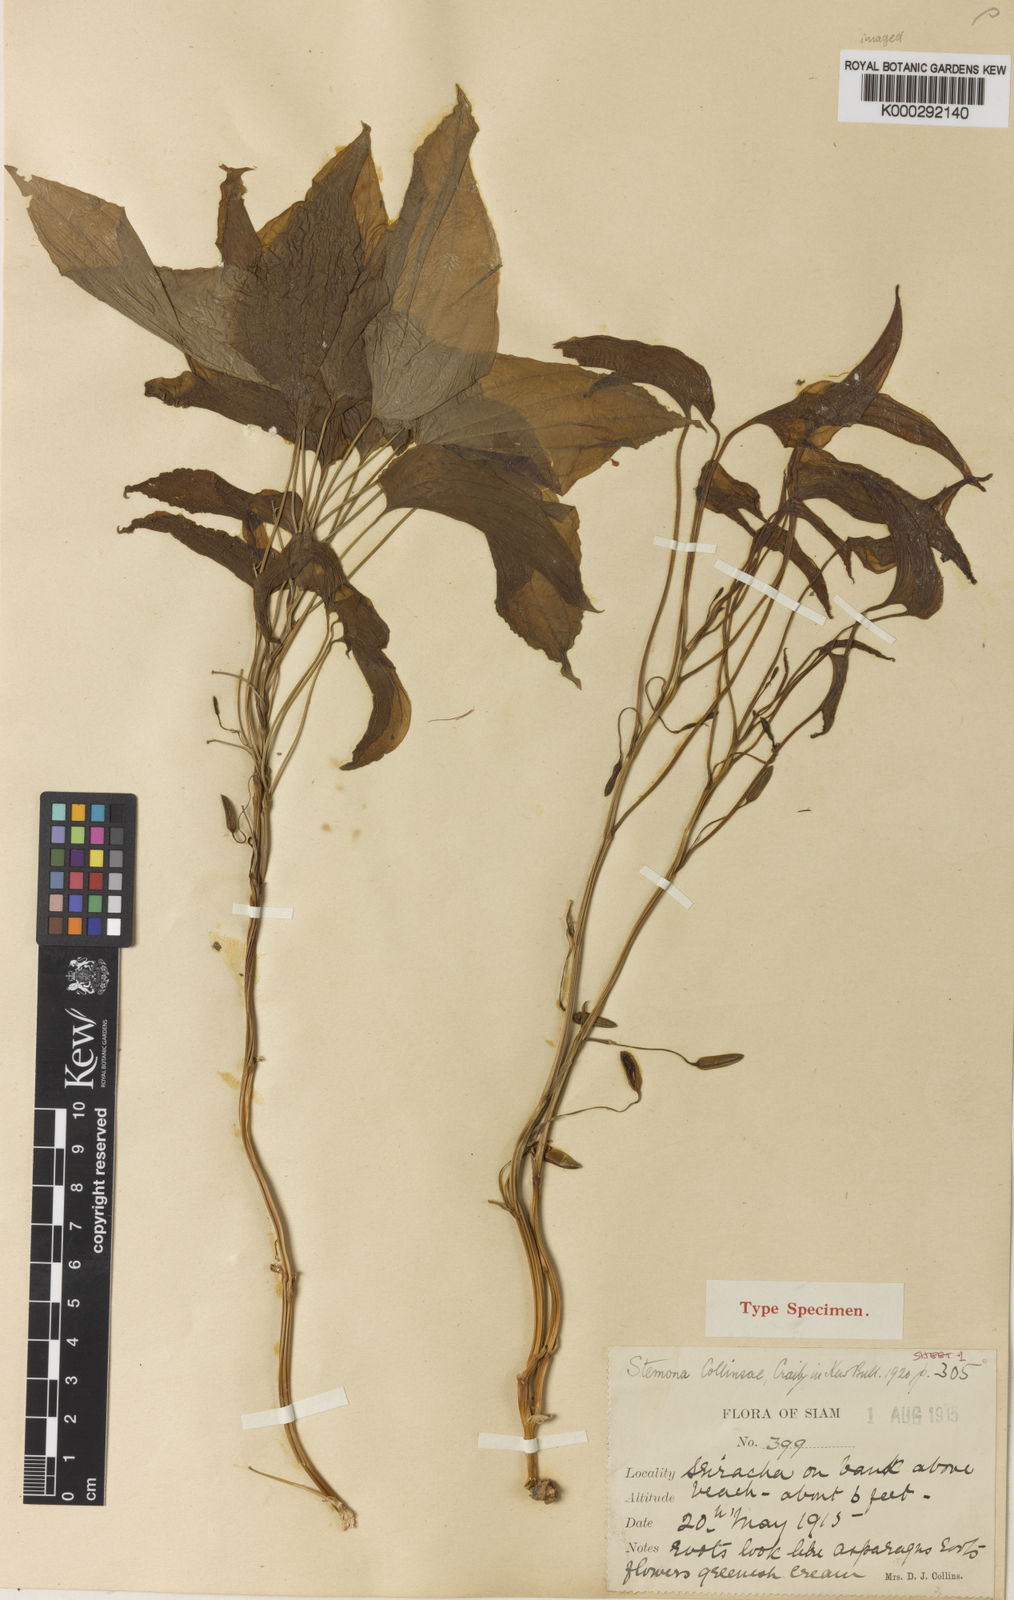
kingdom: Plantae
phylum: Tracheophyta
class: Liliopsida
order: Pandanales
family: Stemonaceae
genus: Stemona
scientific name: Stemona collinsiae
